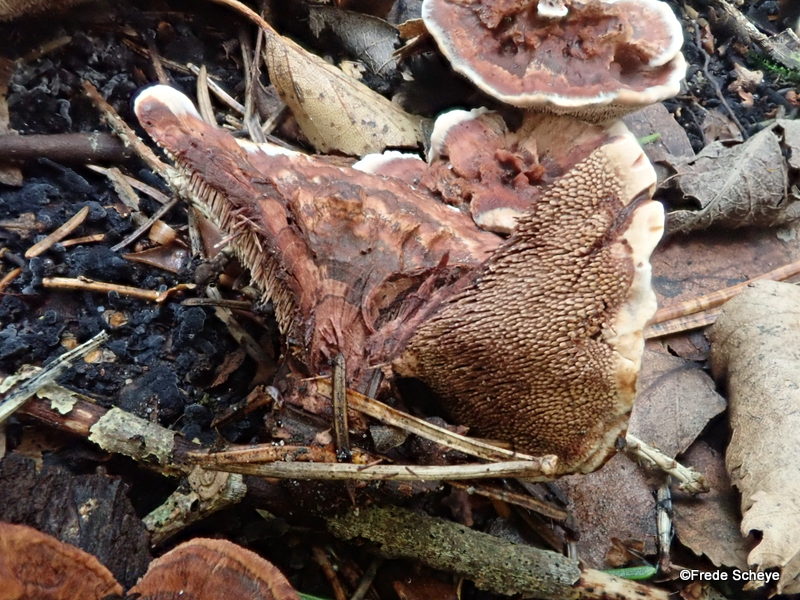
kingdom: Fungi
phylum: Basidiomycota
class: Agaricomycetes
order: Thelephorales
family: Bankeraceae
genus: Hydnellum
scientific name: Hydnellum concrescens
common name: bæltet korkpigsvamp
